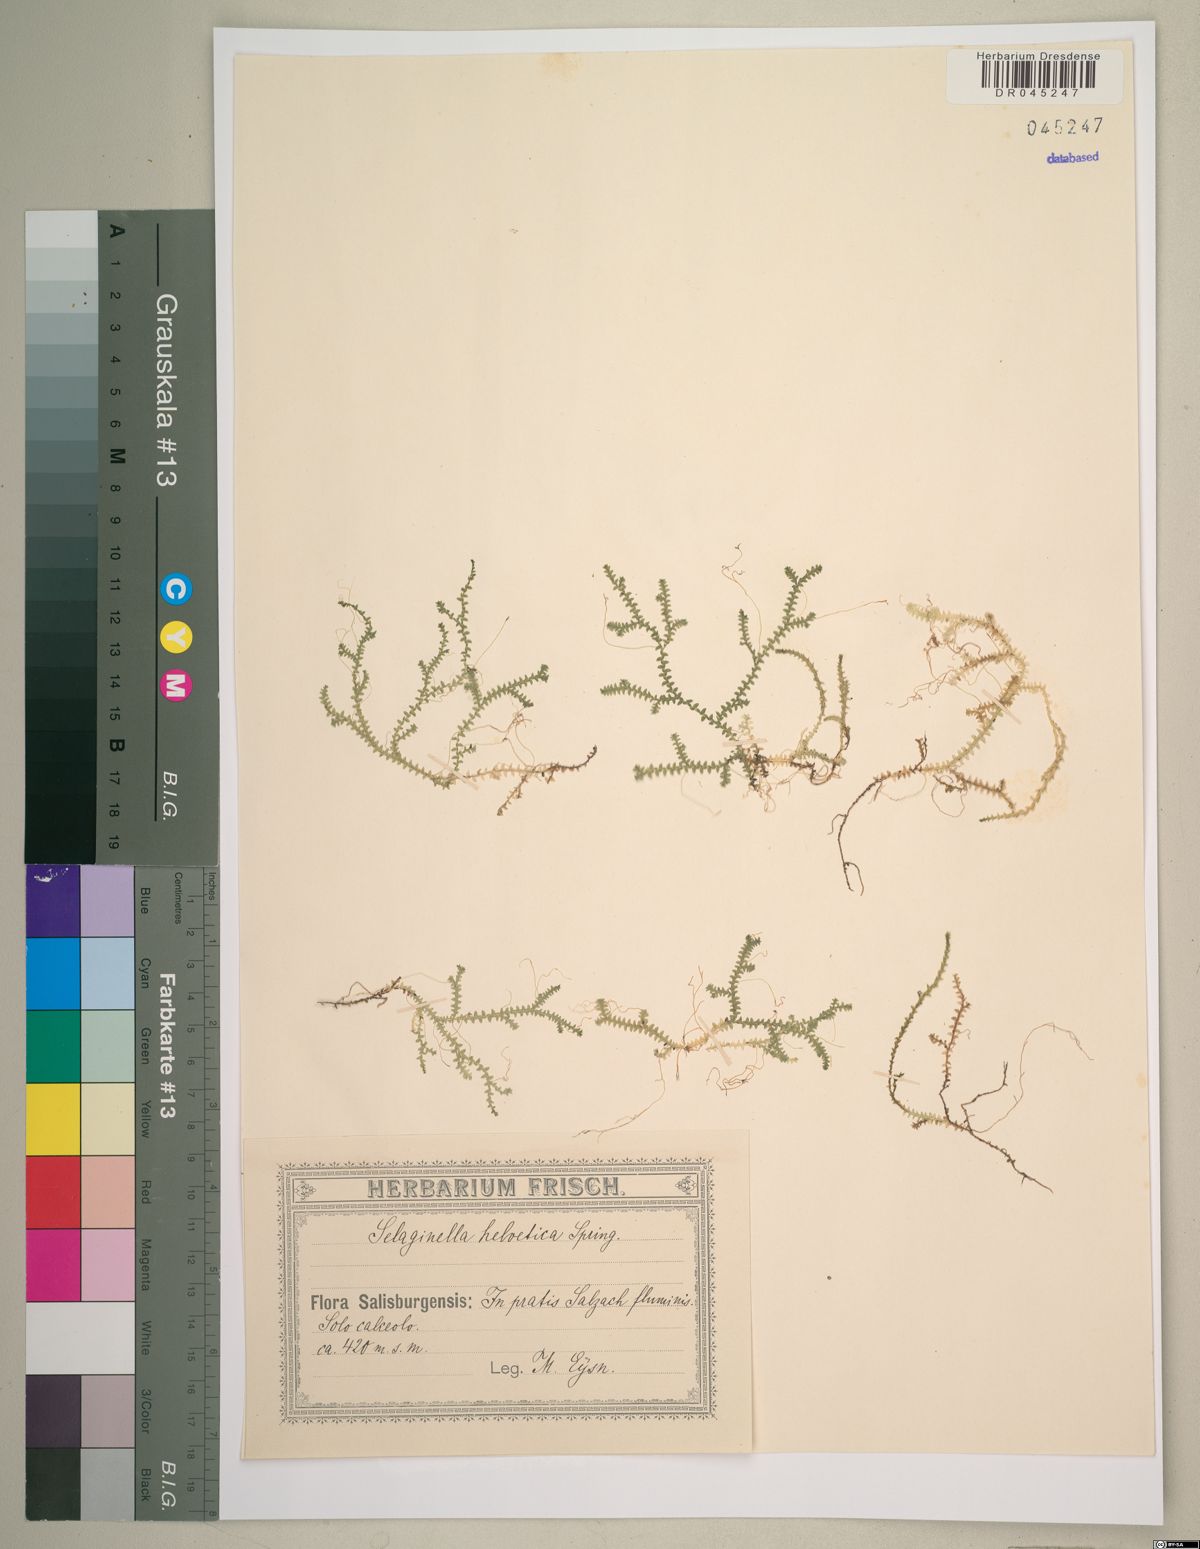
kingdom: Plantae
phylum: Tracheophyta
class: Lycopodiopsida
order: Selaginellales
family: Selaginellaceae
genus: Selaginella
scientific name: Selaginella helvetica
